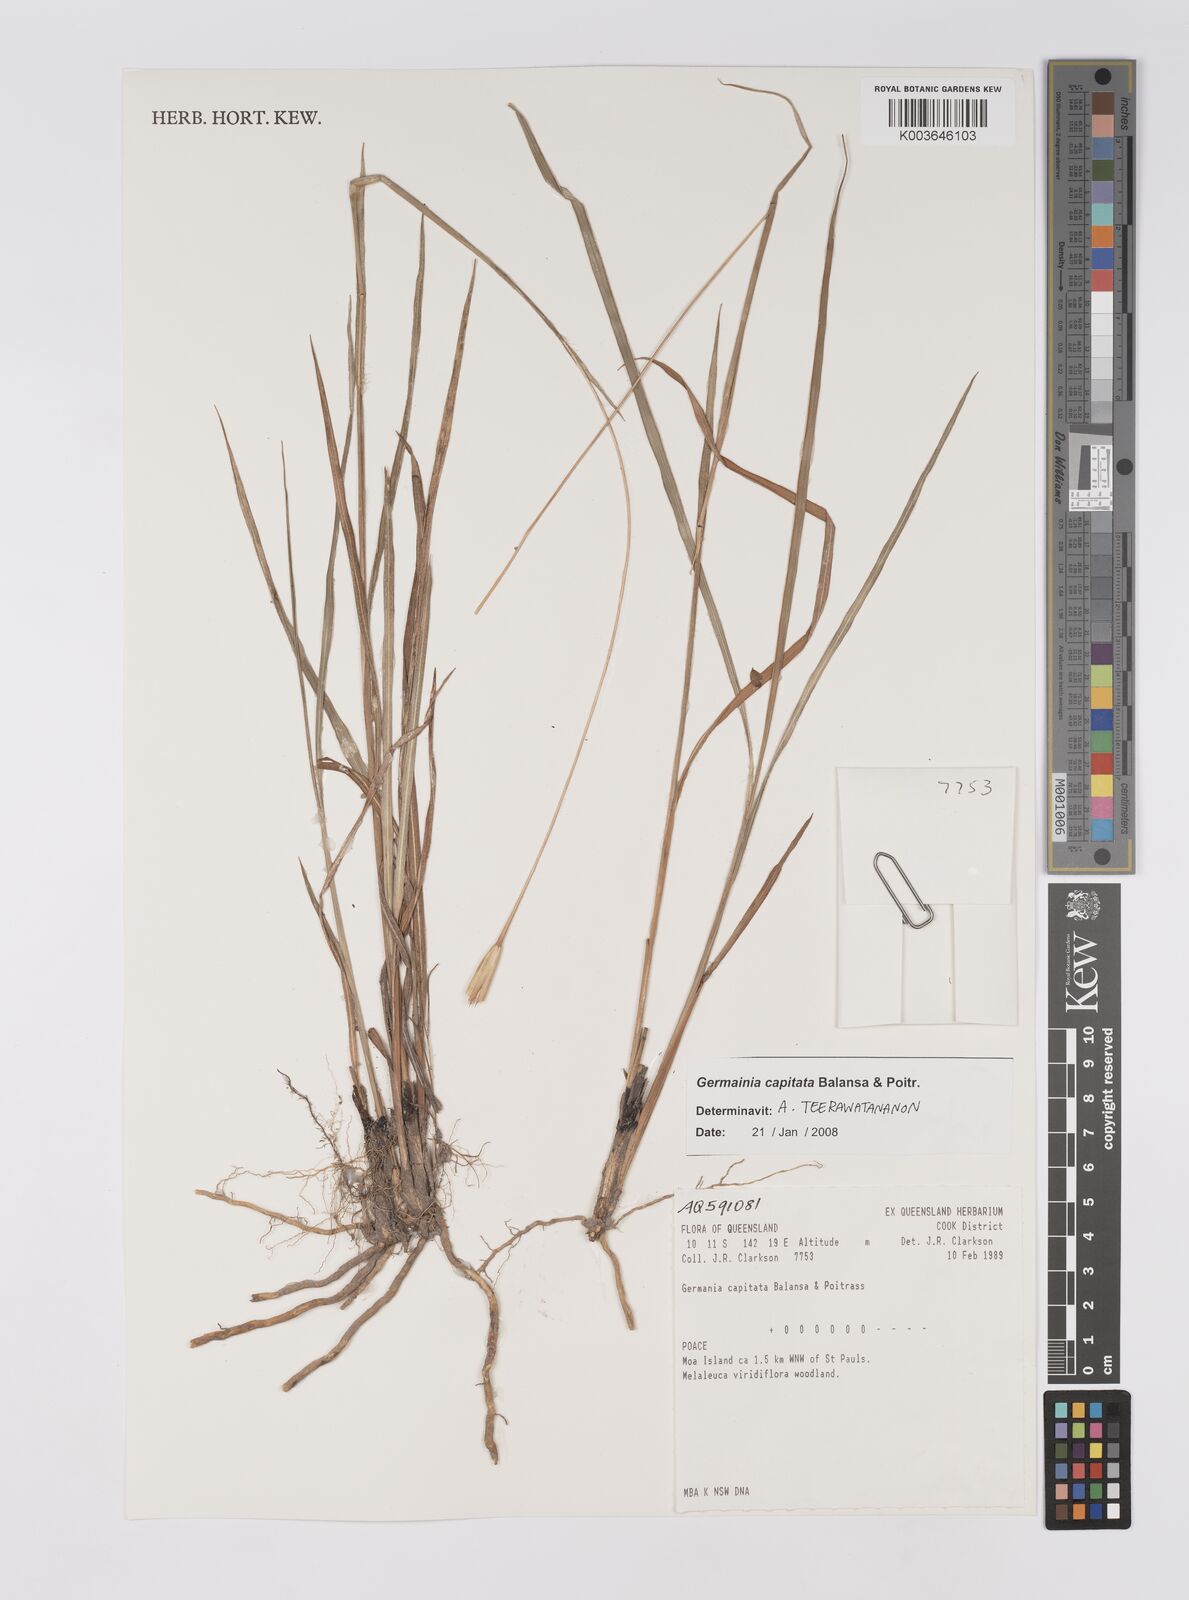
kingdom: Plantae
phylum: Tracheophyta
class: Liliopsida
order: Poales
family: Poaceae
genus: Germainia
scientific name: Germainia capitata
